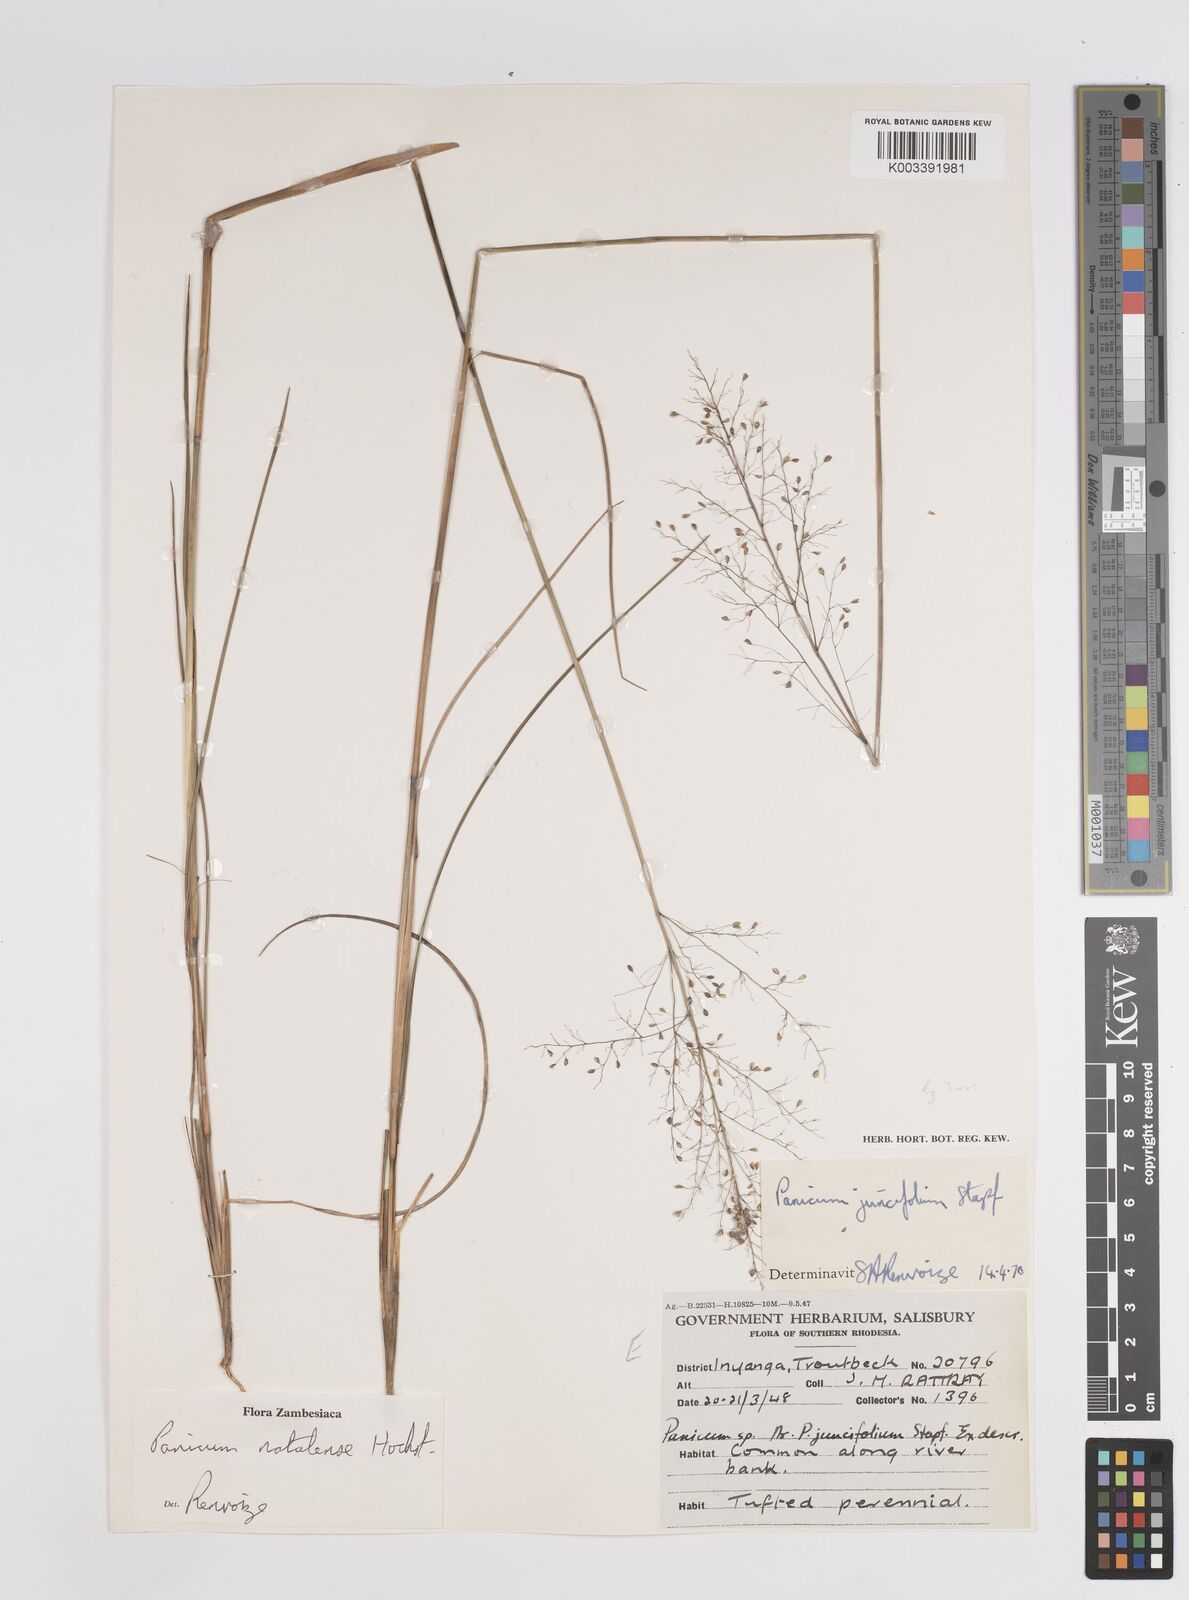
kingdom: Plantae
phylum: Tracheophyta
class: Liliopsida
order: Poales
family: Poaceae
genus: Trichanthecium
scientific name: Trichanthecium natalense
